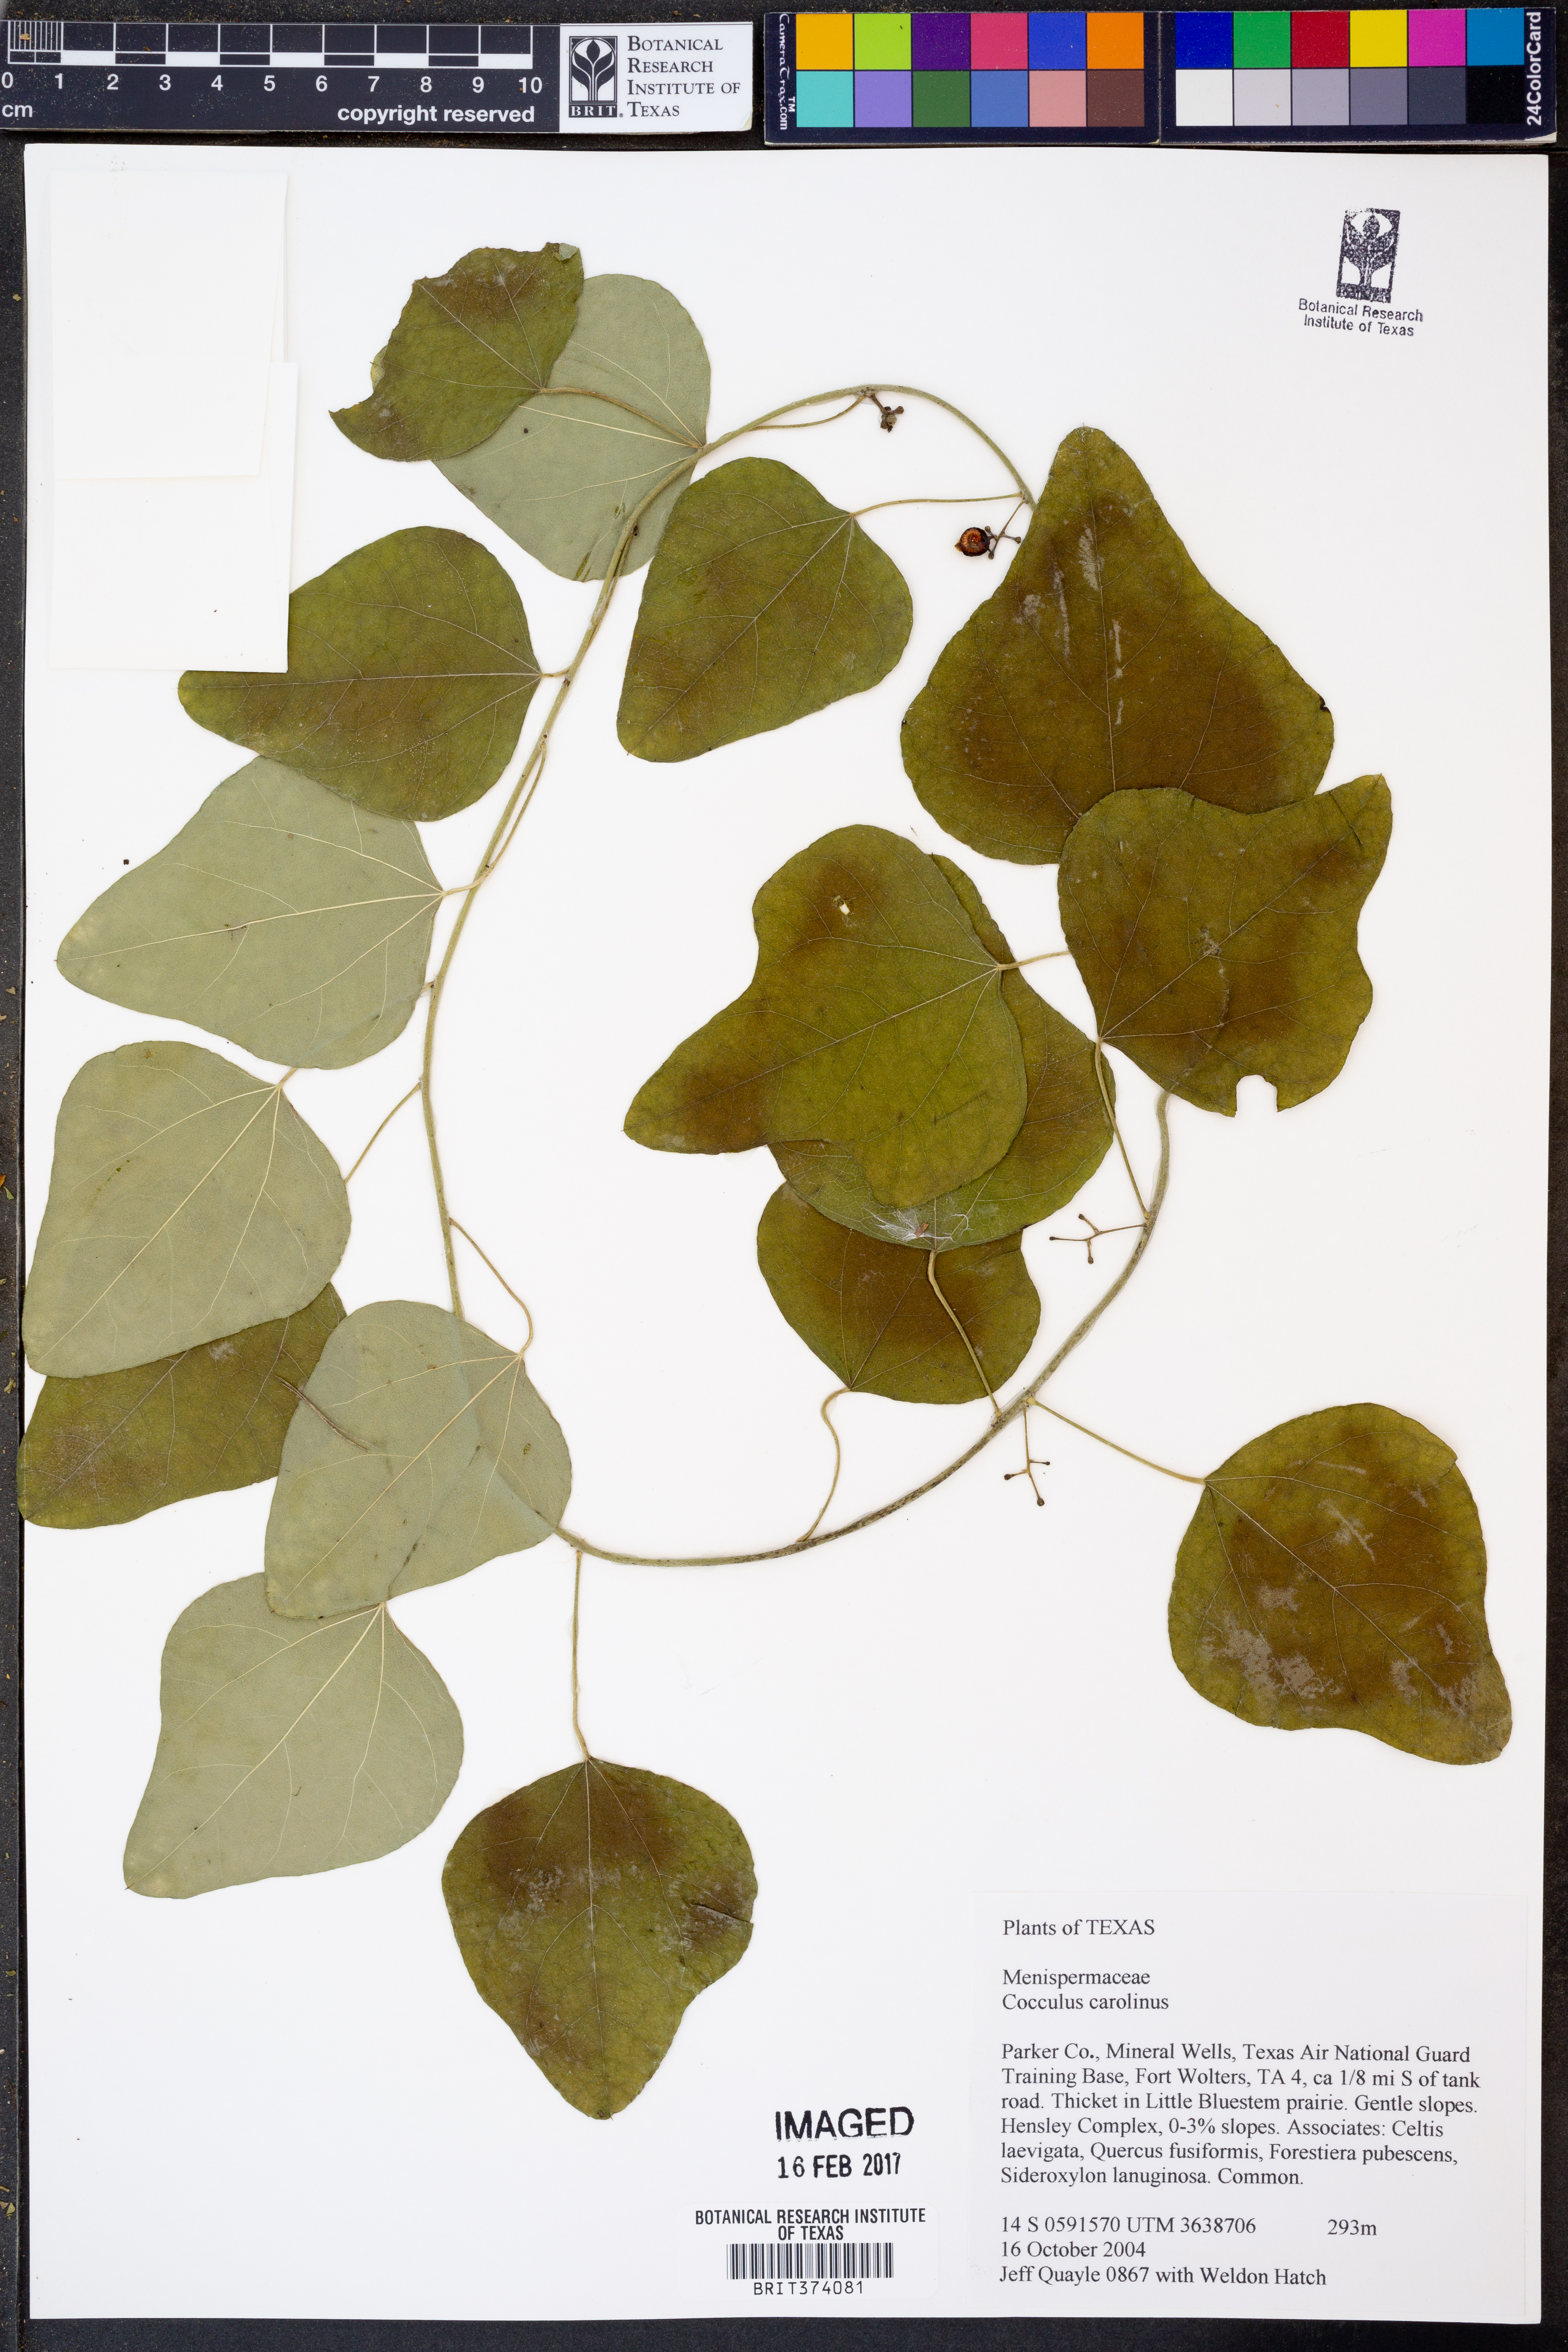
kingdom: Plantae
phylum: Tracheophyta
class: Magnoliopsida
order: Ranunculales
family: Menispermaceae
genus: Cocculus
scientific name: Cocculus carolinus
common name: Carolina moonseed
